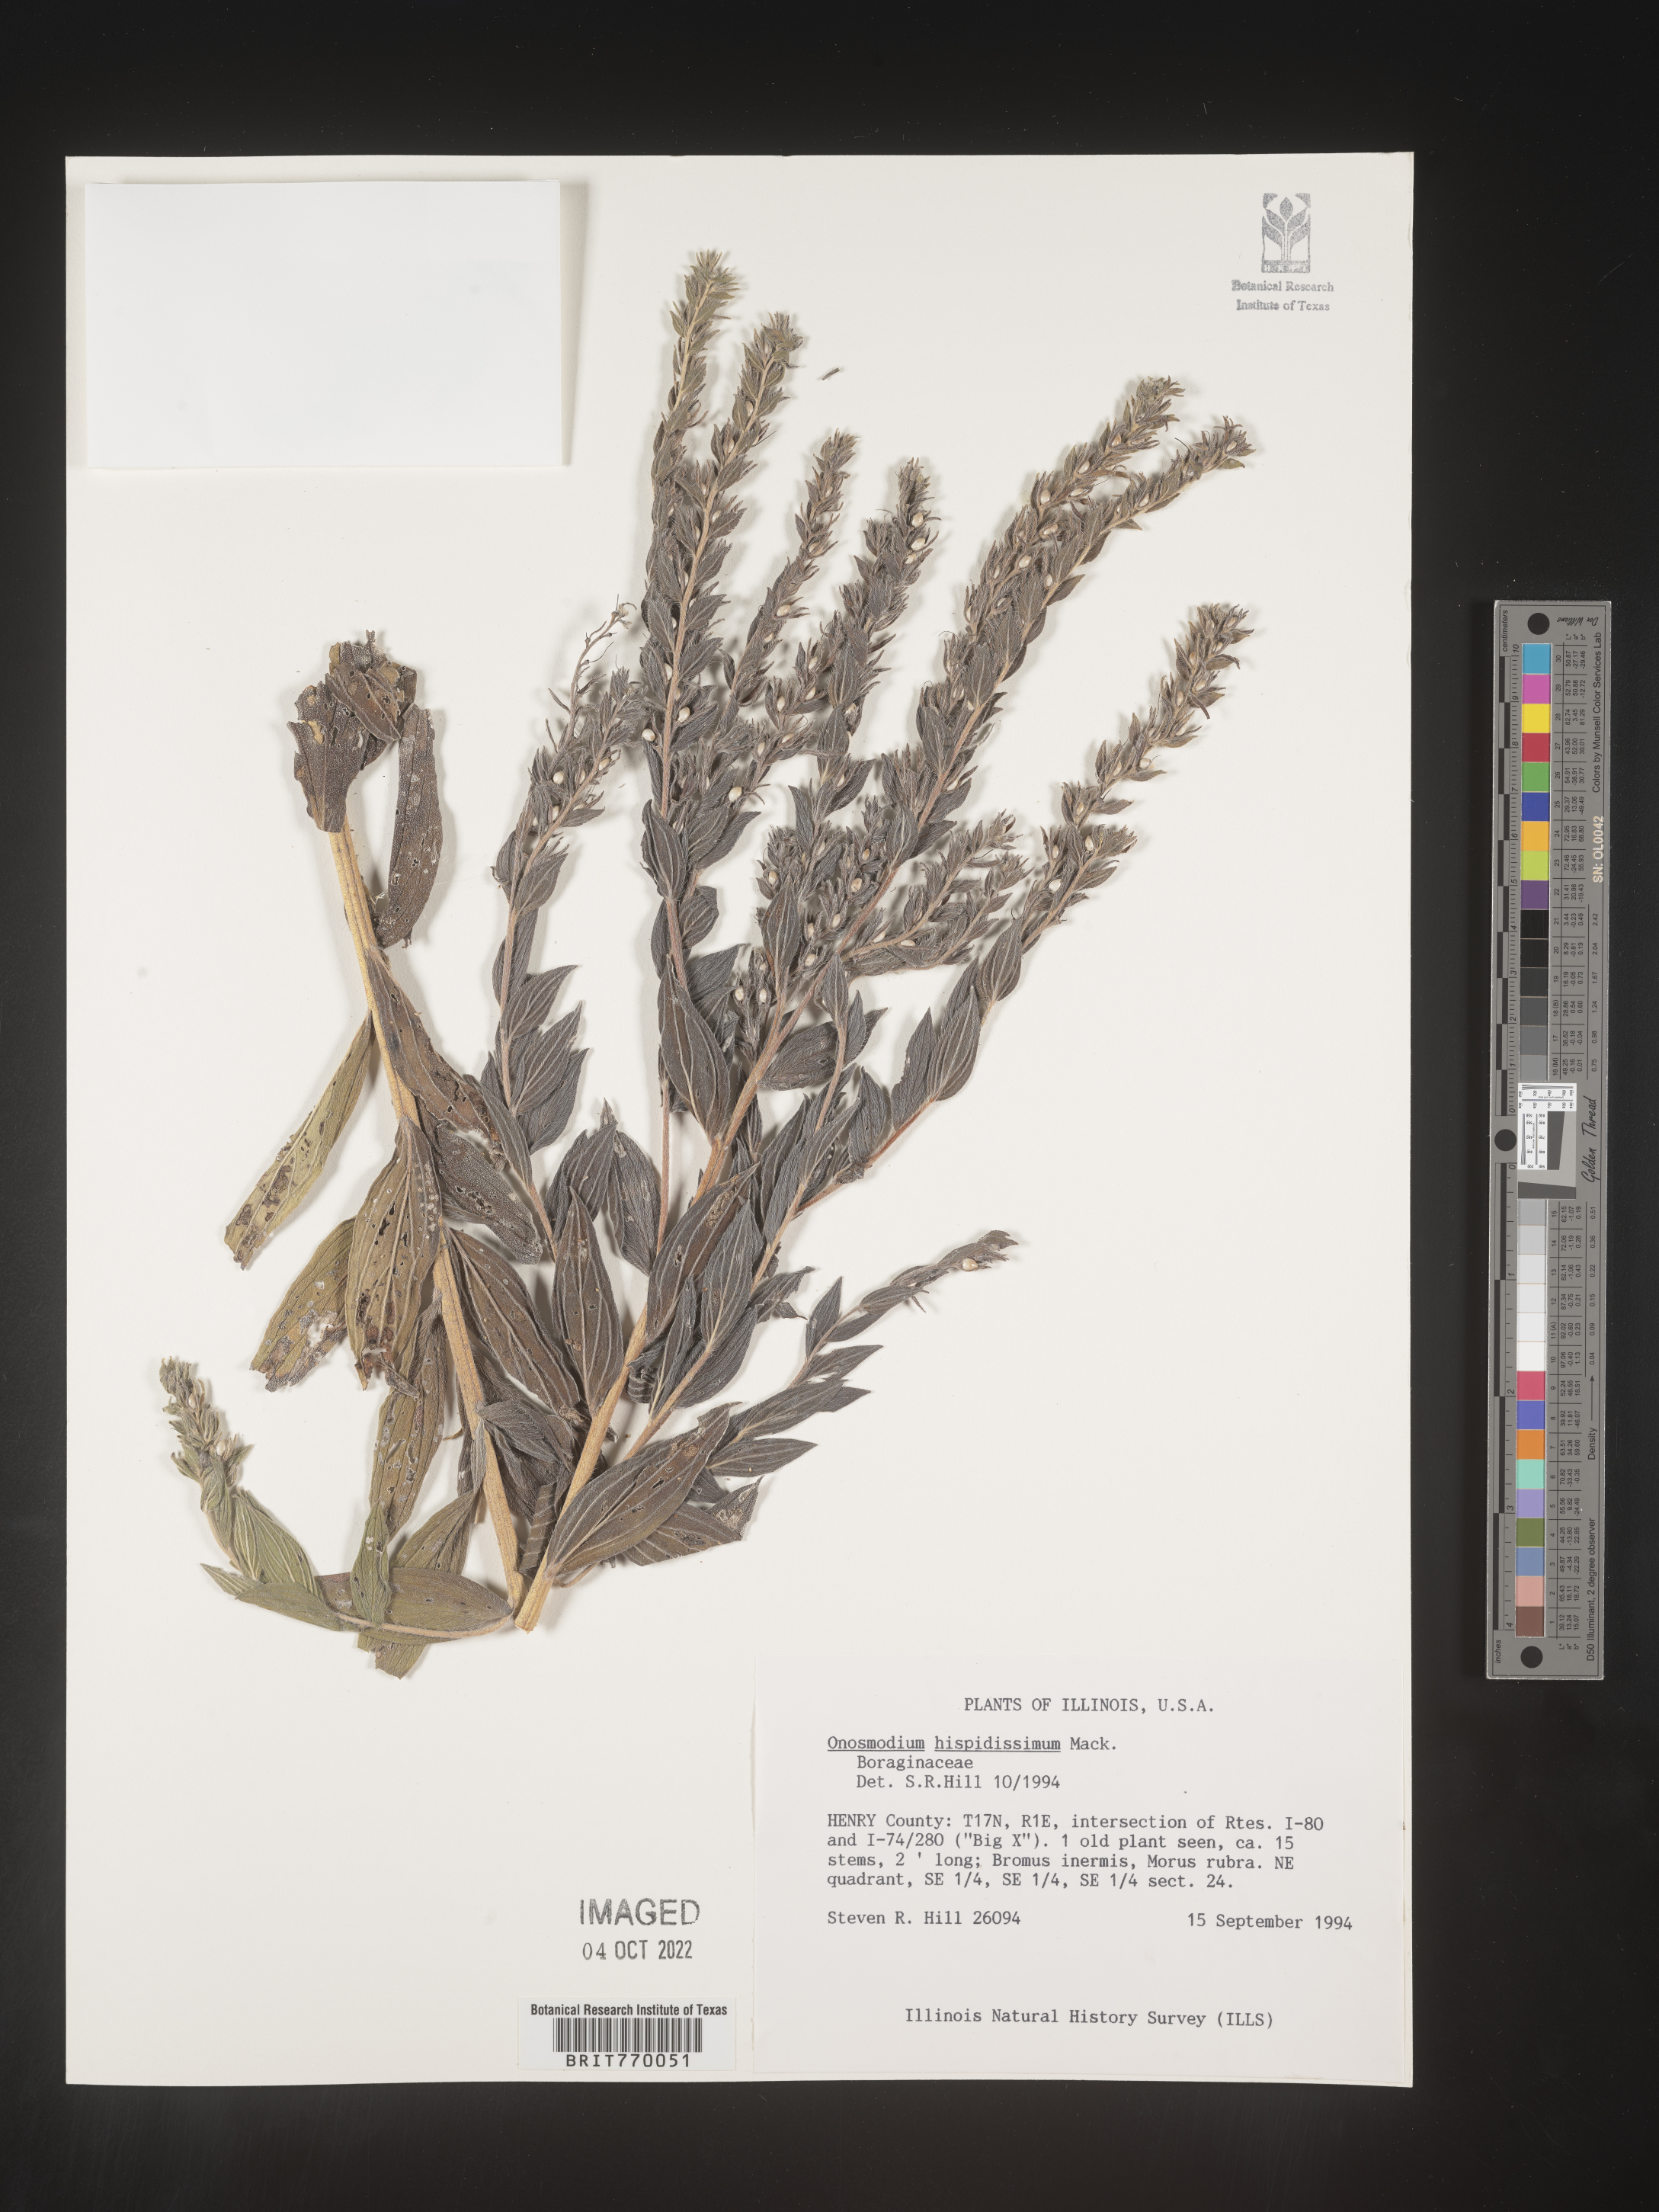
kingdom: Plantae
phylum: Tracheophyta
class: Magnoliopsida
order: Boraginales
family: Boraginaceae
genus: Lithospermum
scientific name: Lithospermum parviflorum
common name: Hairy false gromwell
